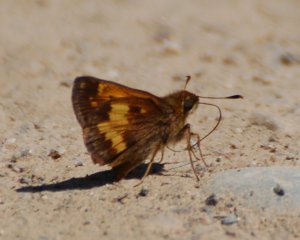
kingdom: Animalia
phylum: Arthropoda
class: Insecta
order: Lepidoptera
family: Hesperiidae
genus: Lon
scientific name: Lon hobomok
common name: Hobomok Skipper
